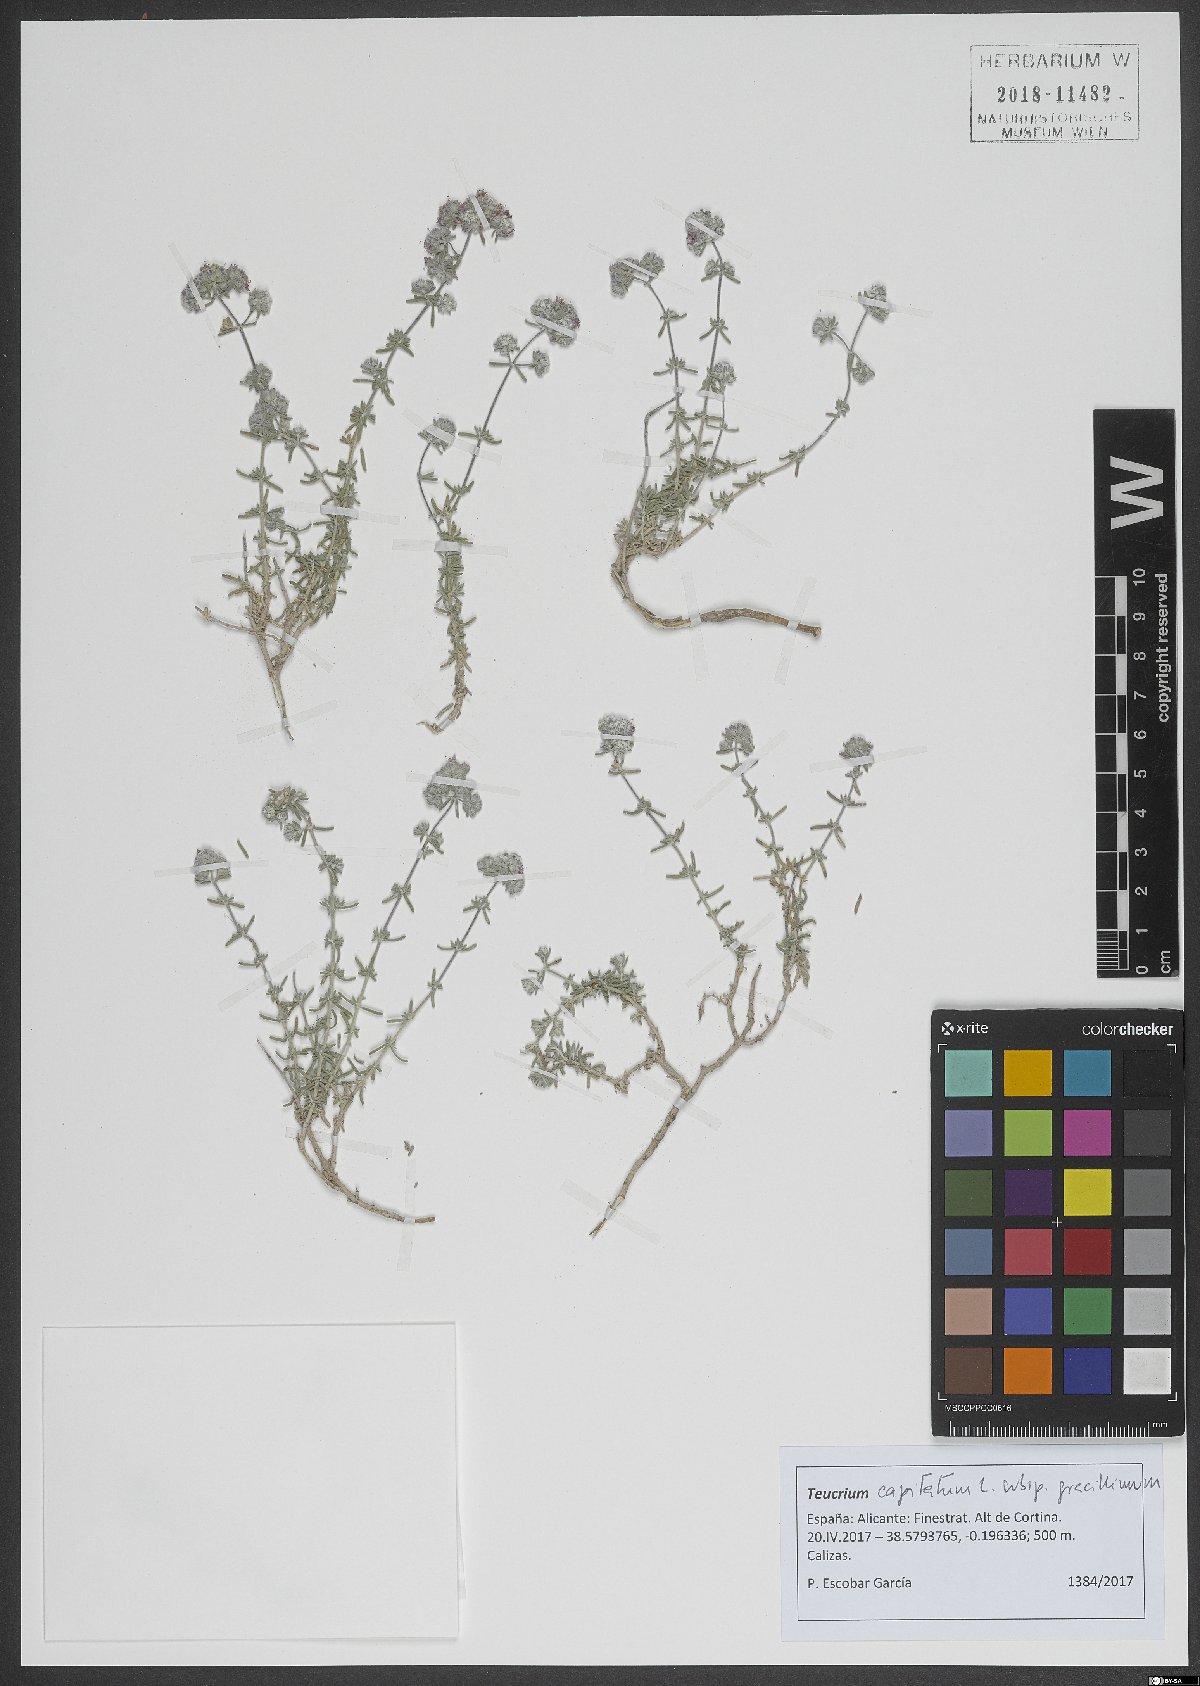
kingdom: Plantae
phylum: Tracheophyta
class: Magnoliopsida
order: Lamiales
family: Lamiaceae
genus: Teucrium
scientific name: Teucrium capitatum
